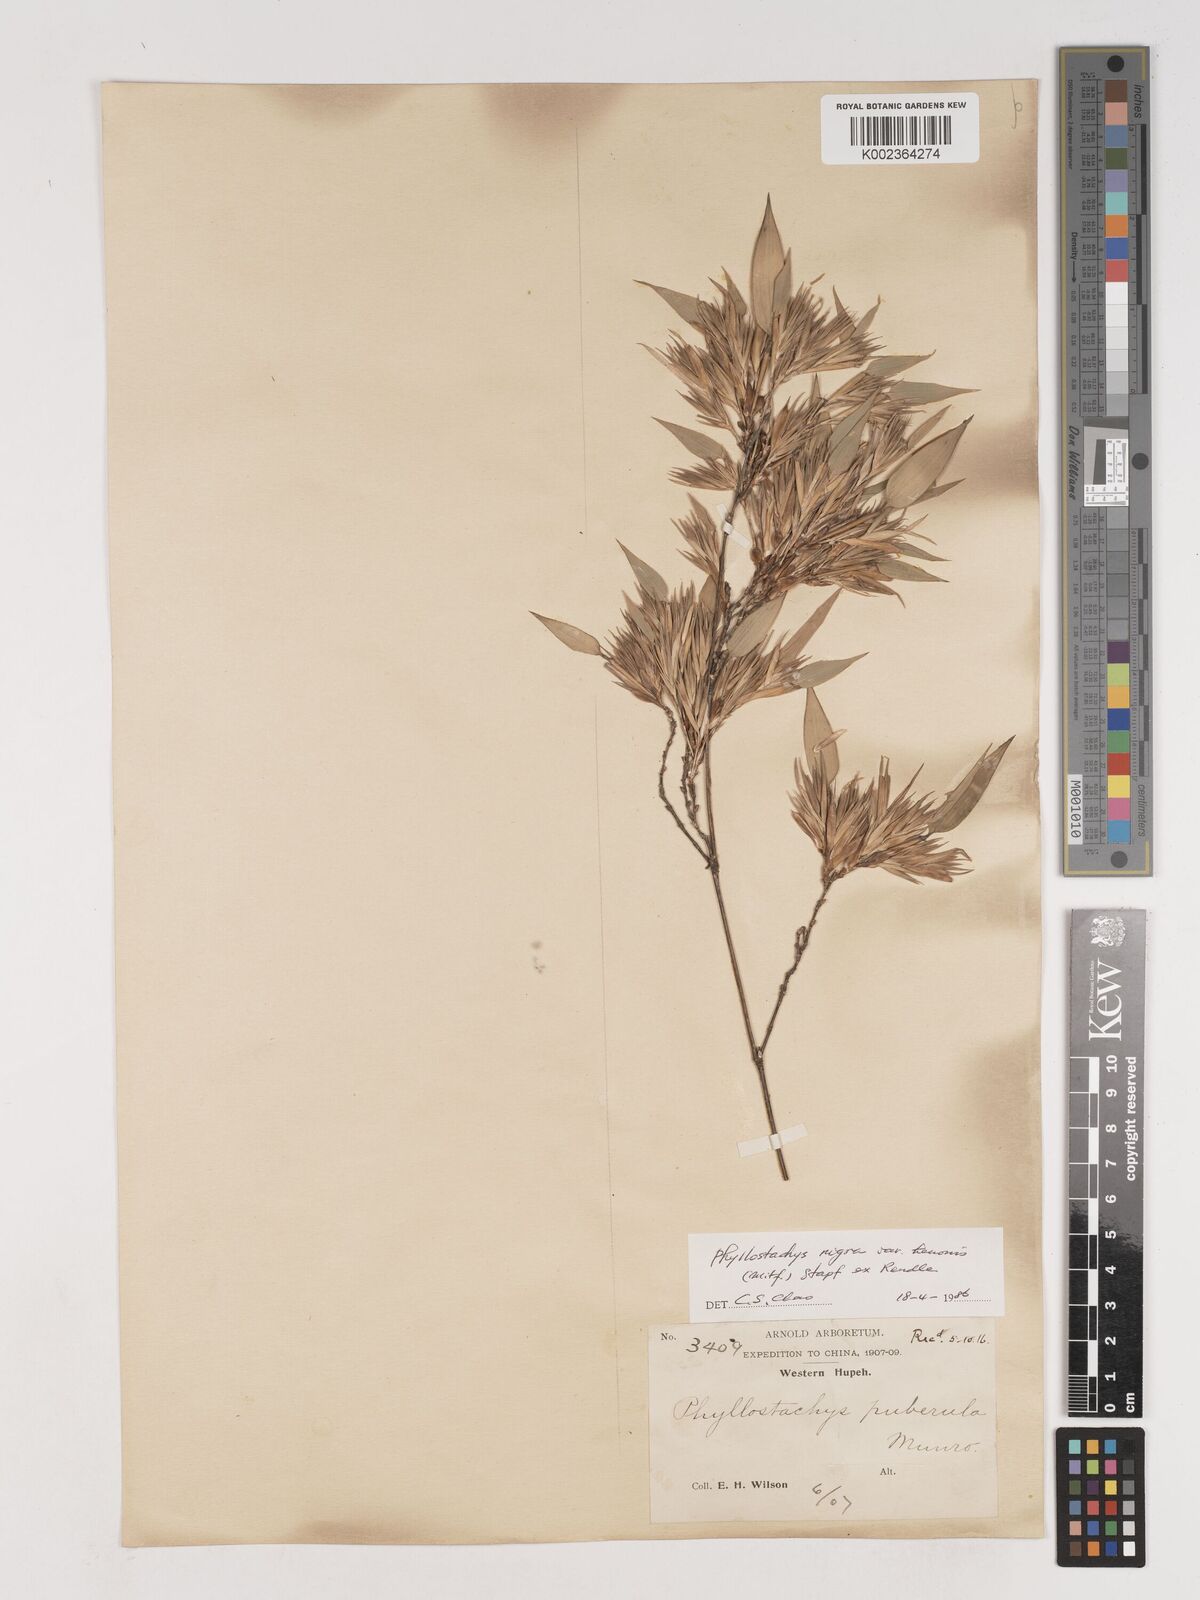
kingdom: Plantae
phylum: Tracheophyta
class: Liliopsida
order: Poales
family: Poaceae
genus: Phyllostachys
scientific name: Phyllostachys nigra
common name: Black bamboo
